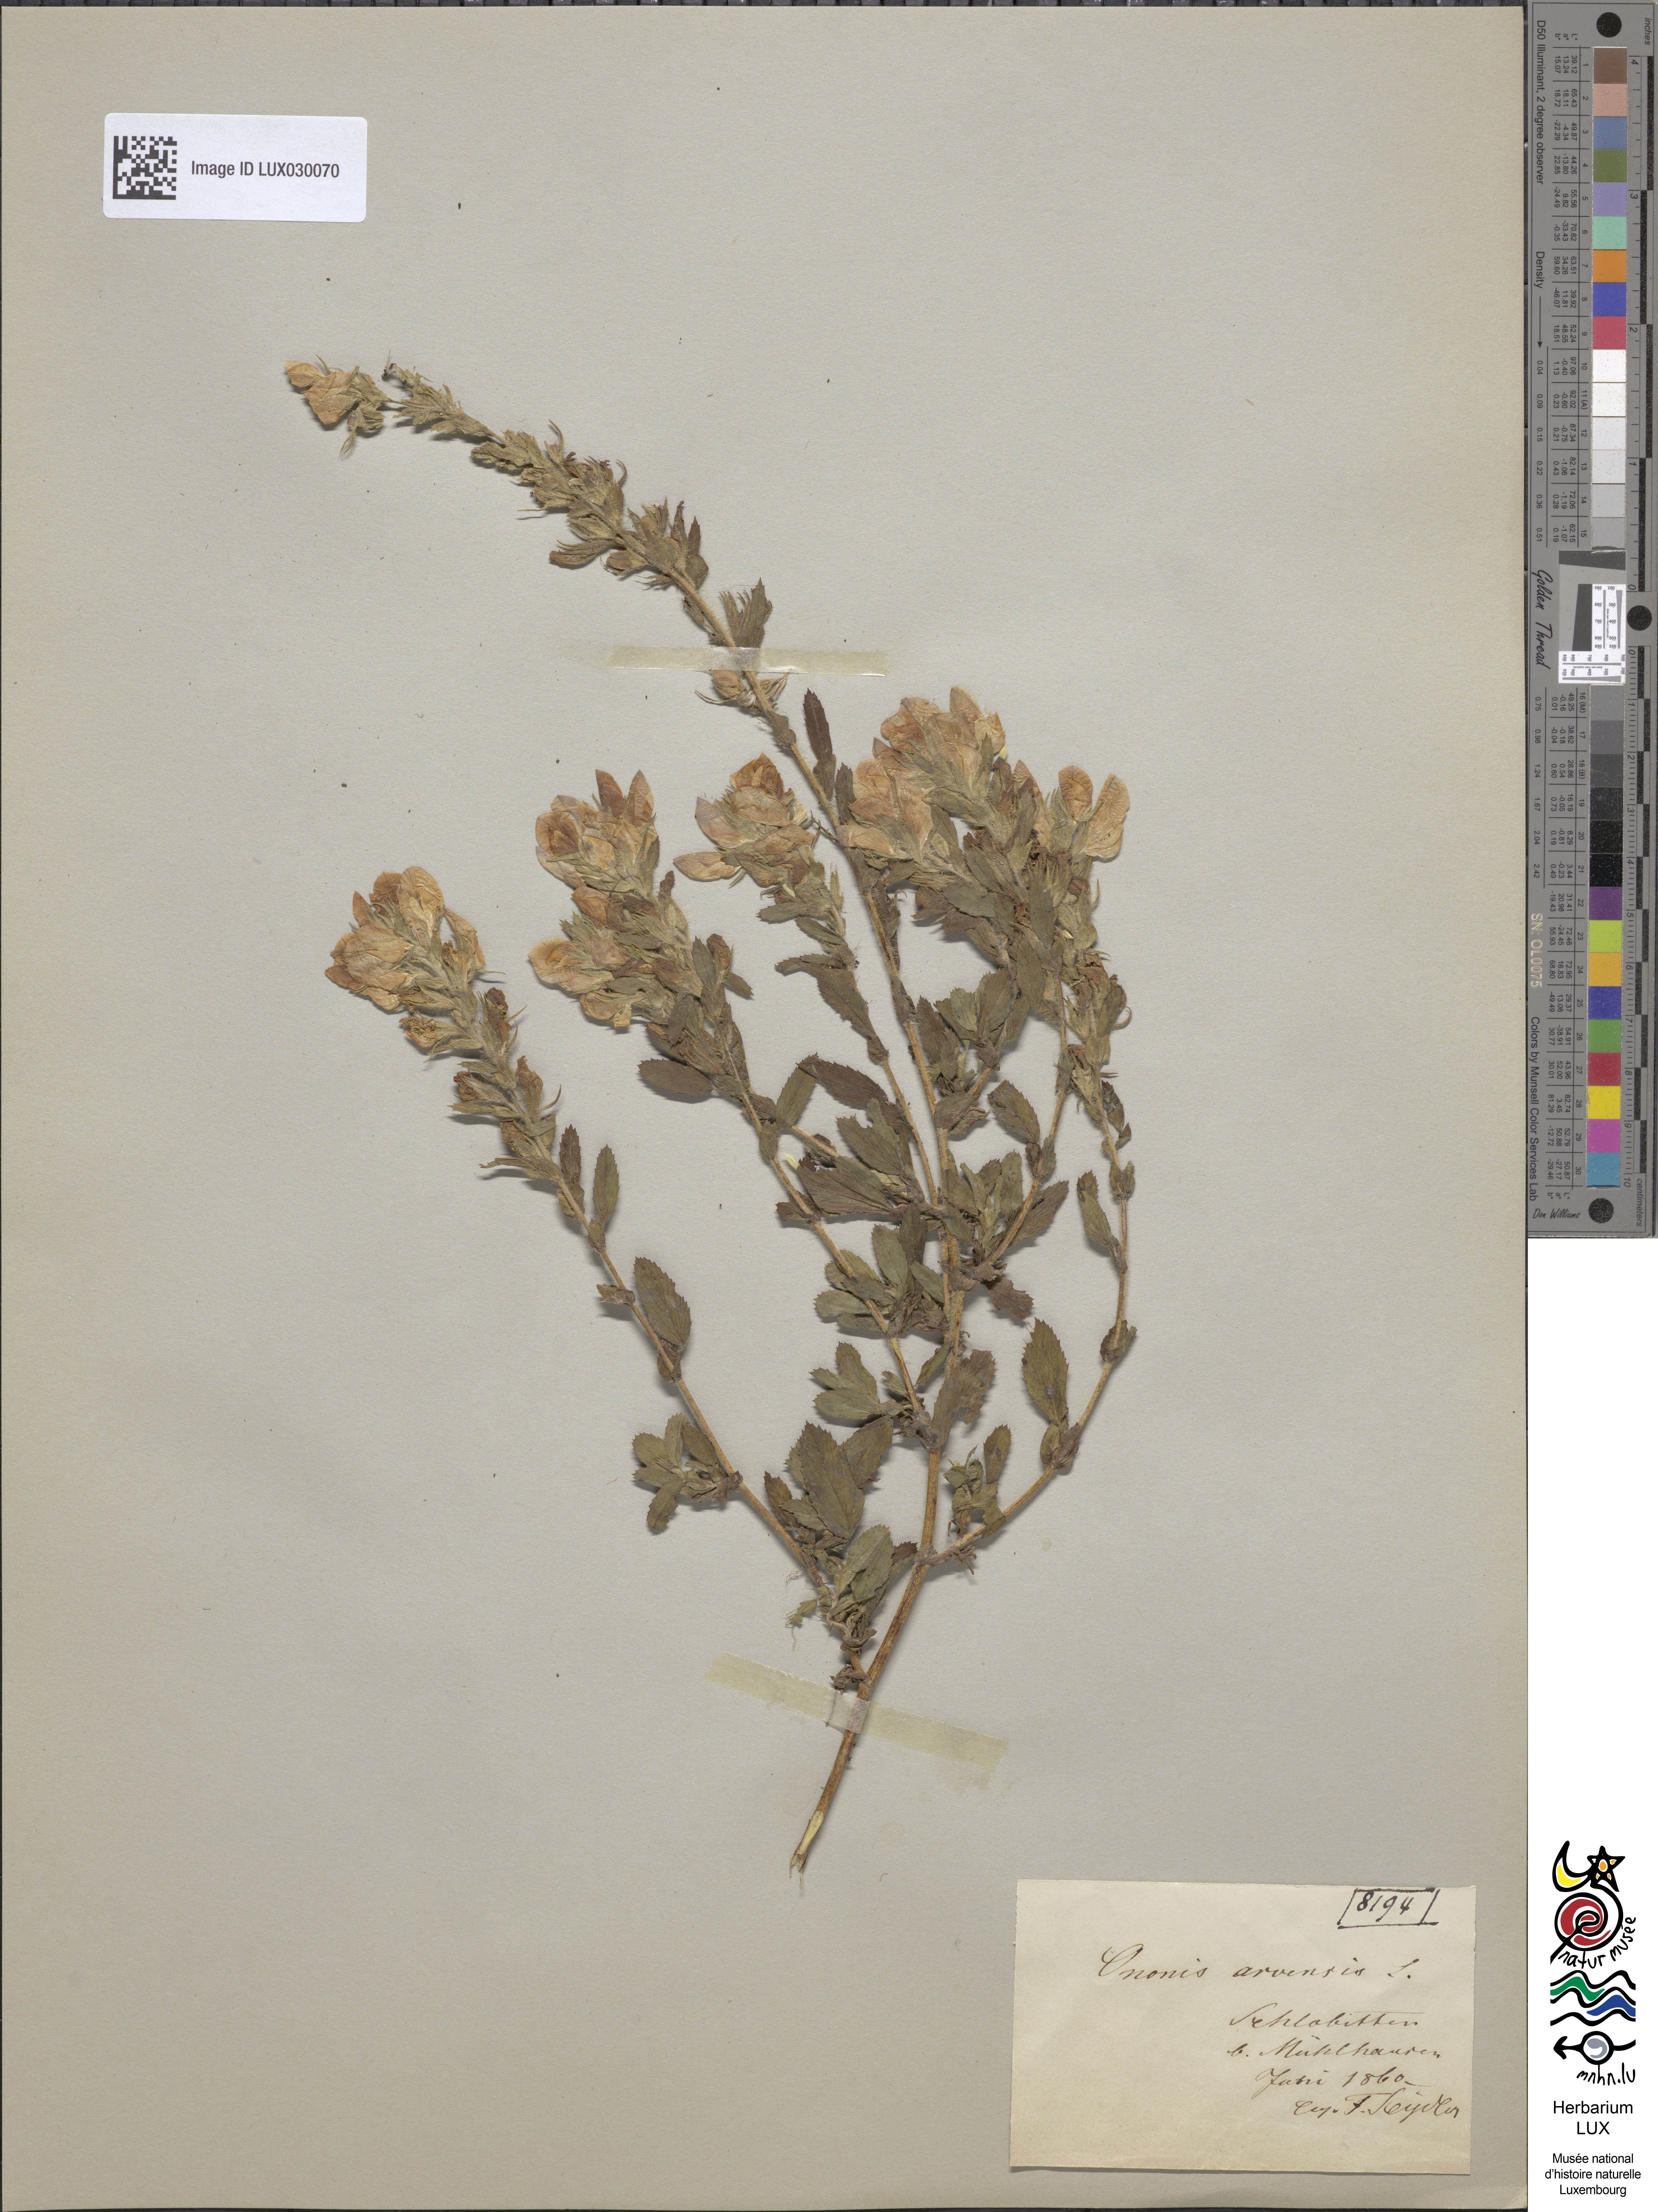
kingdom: Plantae
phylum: Tracheophyta
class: Magnoliopsida
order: Fabales
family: Fabaceae
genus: Ononis
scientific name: Ononis arvensis
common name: Field restharrow
